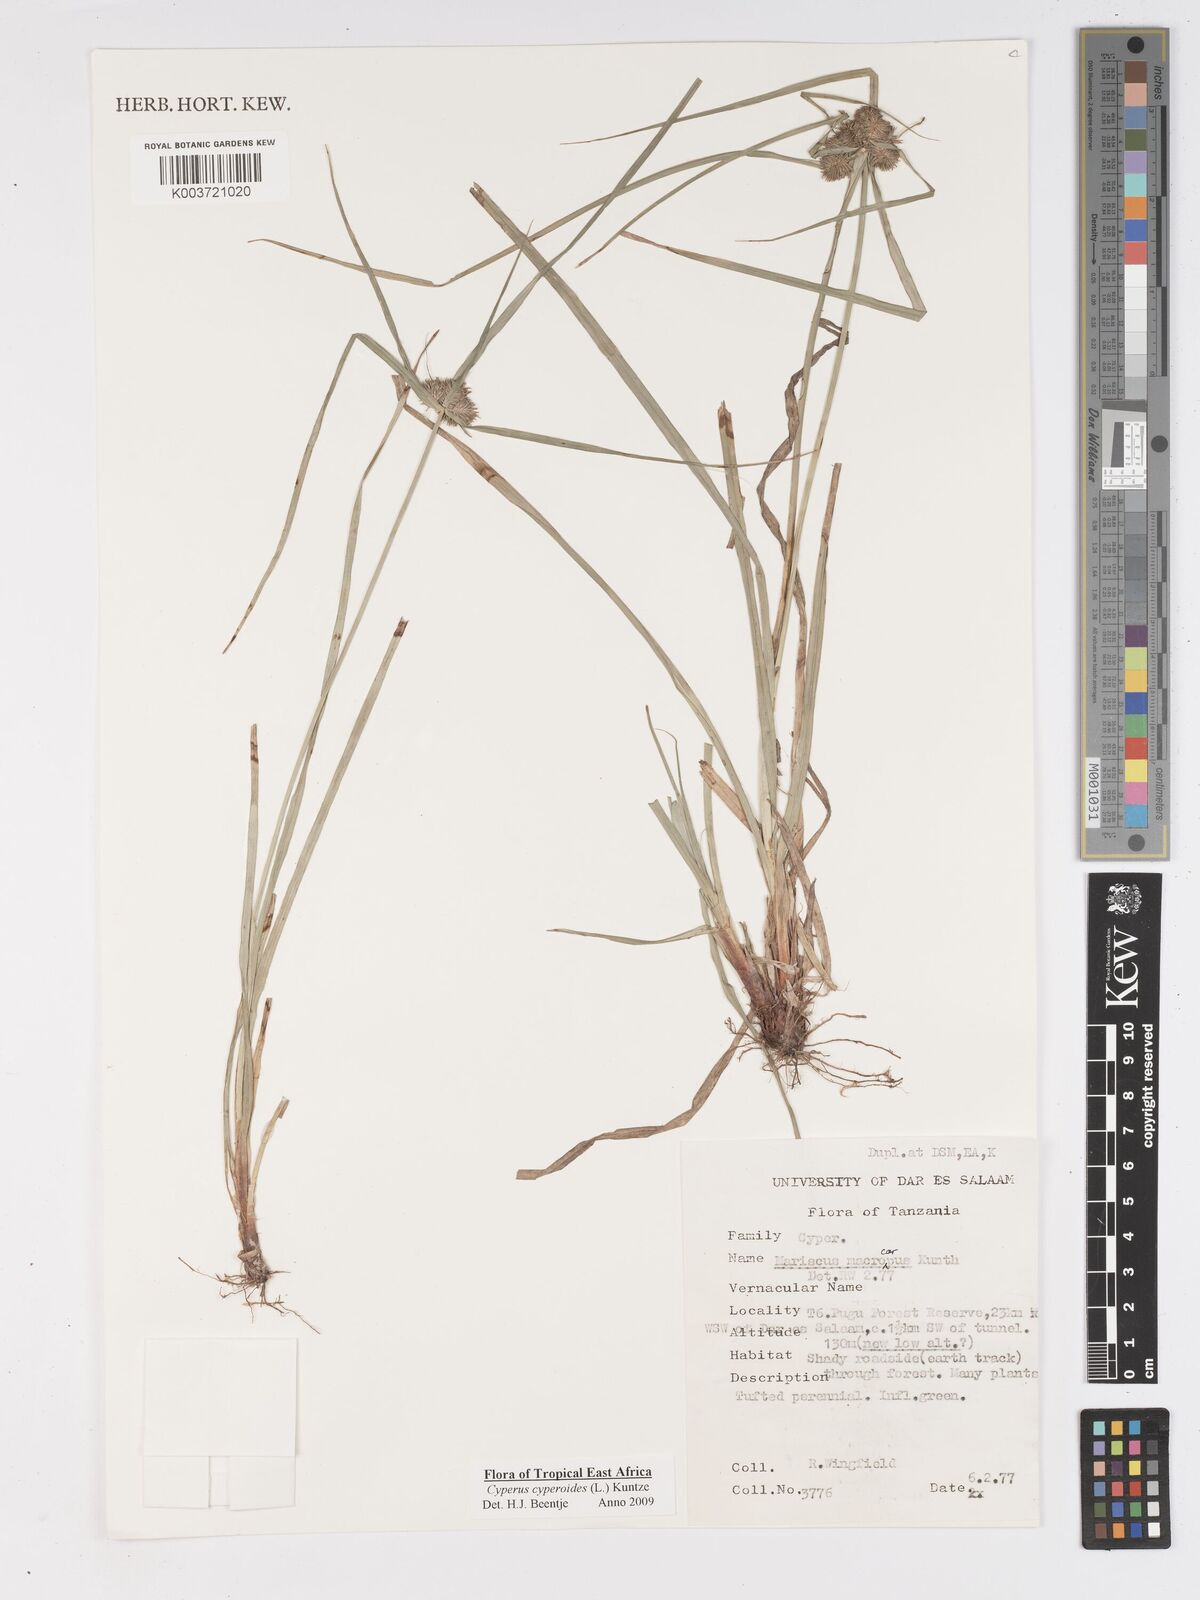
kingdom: Plantae
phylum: Tracheophyta
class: Liliopsida
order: Poales
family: Cyperaceae
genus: Cyperus
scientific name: Cyperus cyperoides
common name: Pacific island flat sedge
